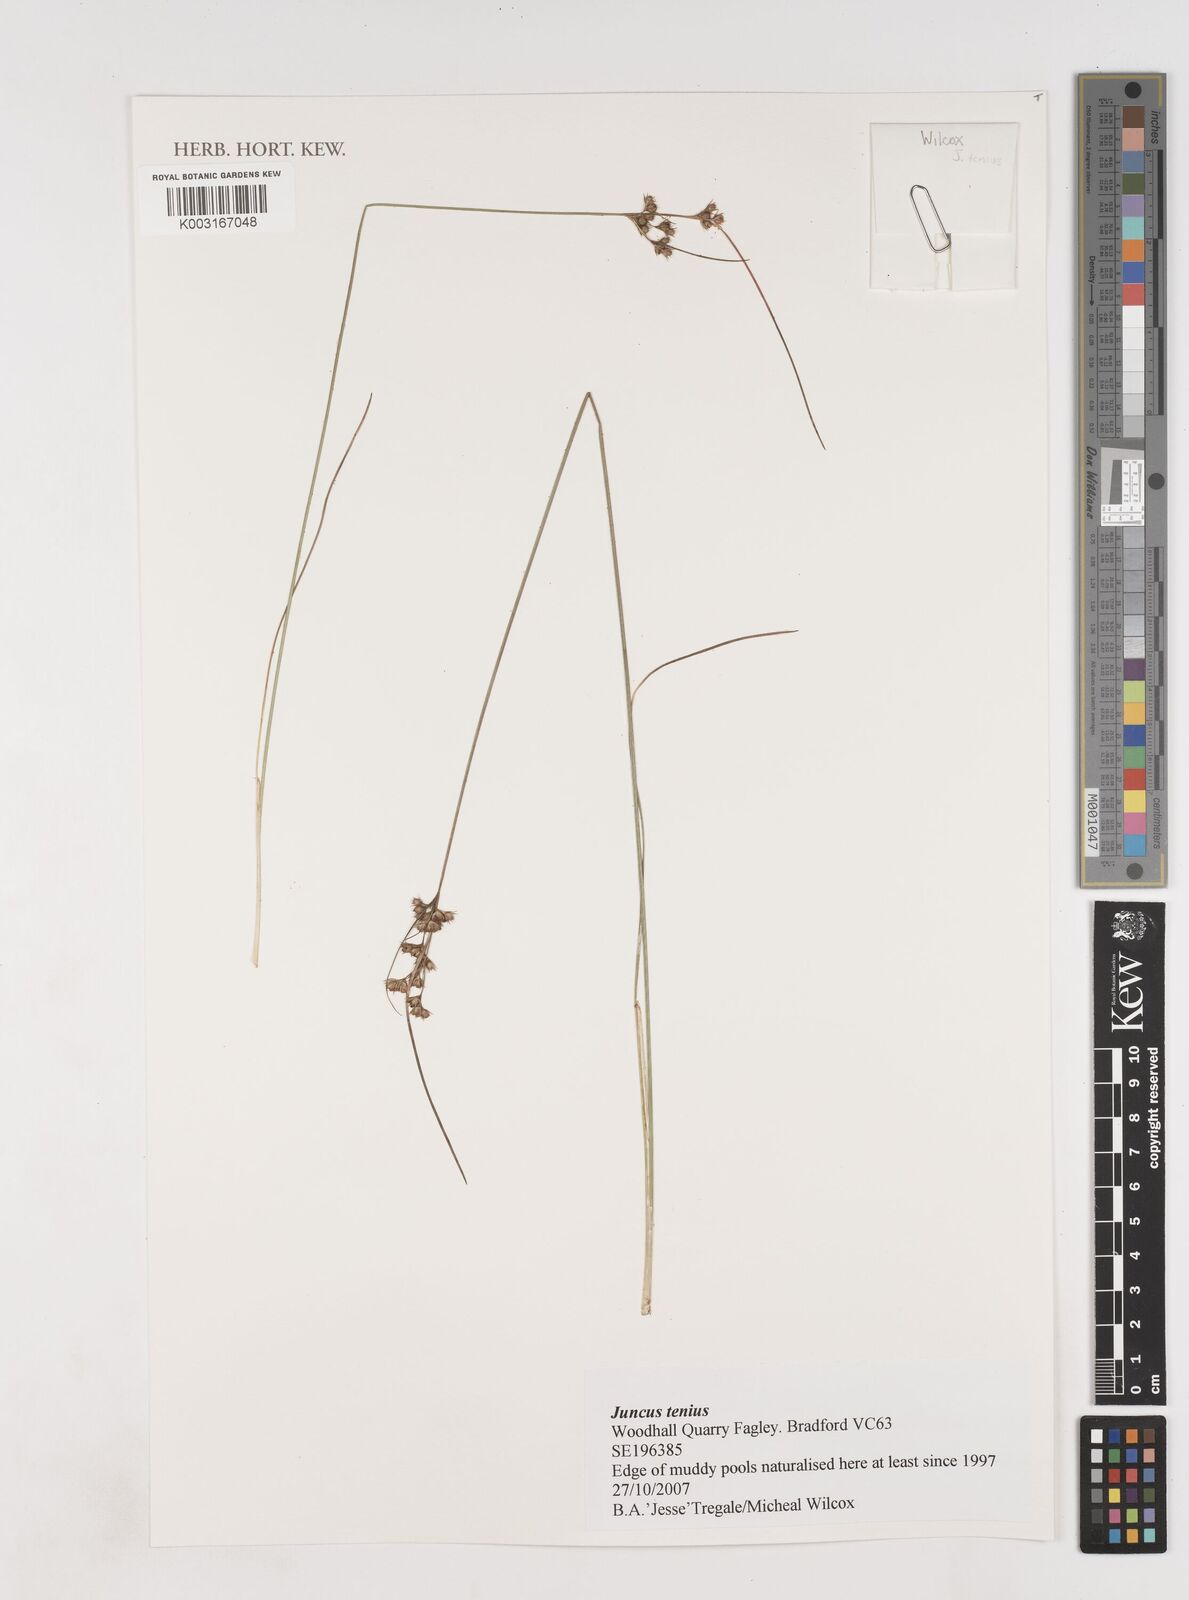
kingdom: Plantae
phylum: Tracheophyta
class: Liliopsida
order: Poales
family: Juncaceae
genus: Juncus
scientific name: Juncus tenuis
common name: Slender rush
